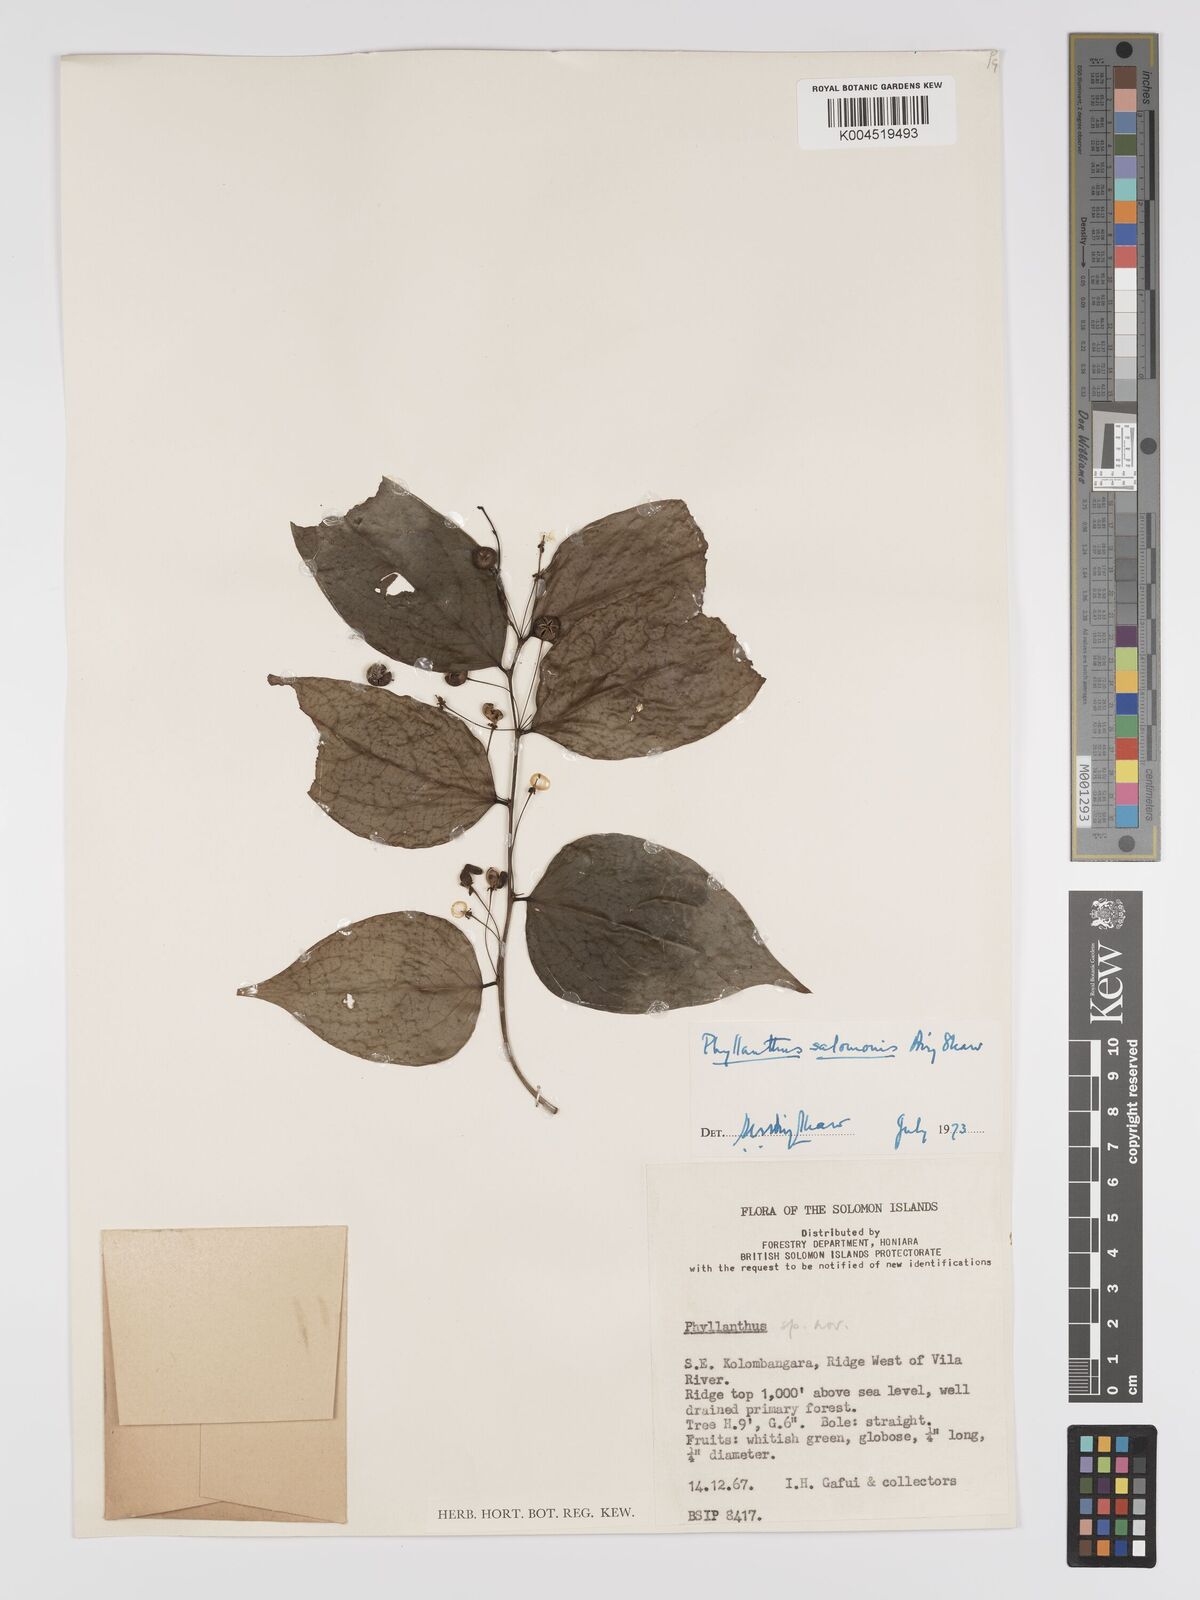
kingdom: Plantae
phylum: Tracheophyta
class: Magnoliopsida
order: Malpighiales
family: Phyllanthaceae
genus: Phyllanthus
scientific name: Phyllanthus salomonis
